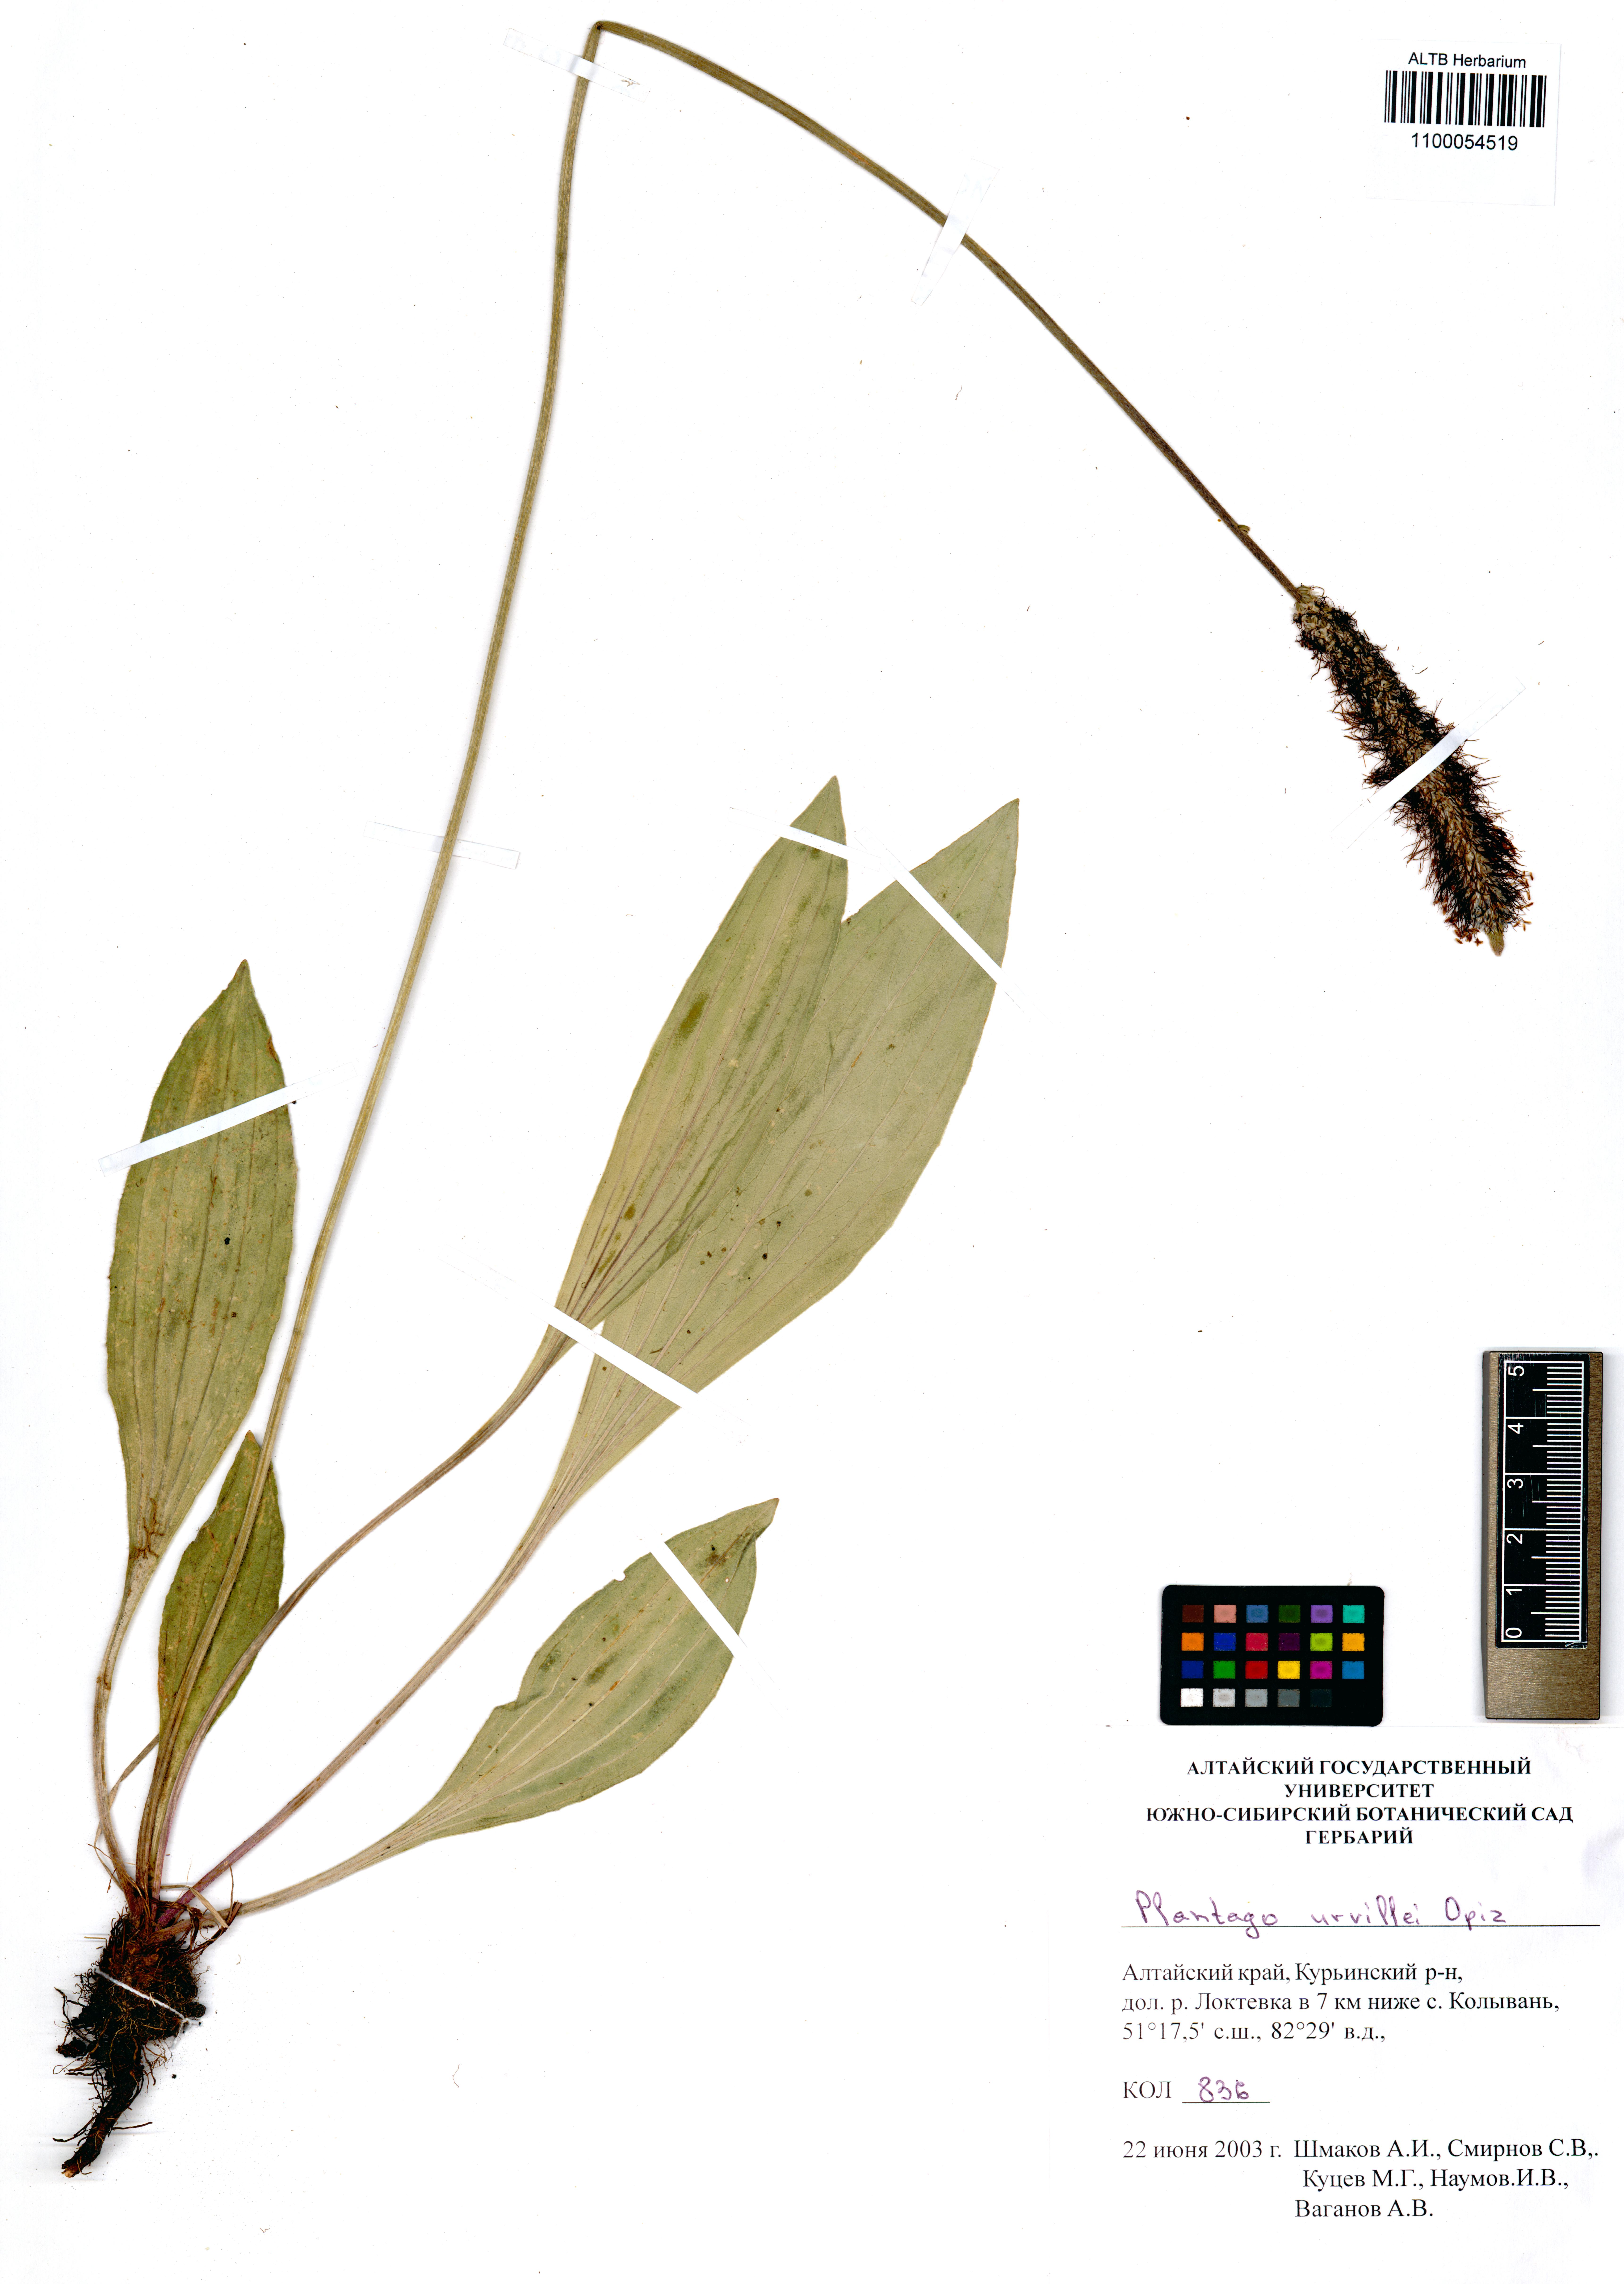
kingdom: Plantae
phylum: Tracheophyta
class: Magnoliopsida
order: Lamiales
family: Plantaginaceae
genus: Plantago
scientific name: Plantago urvillei
